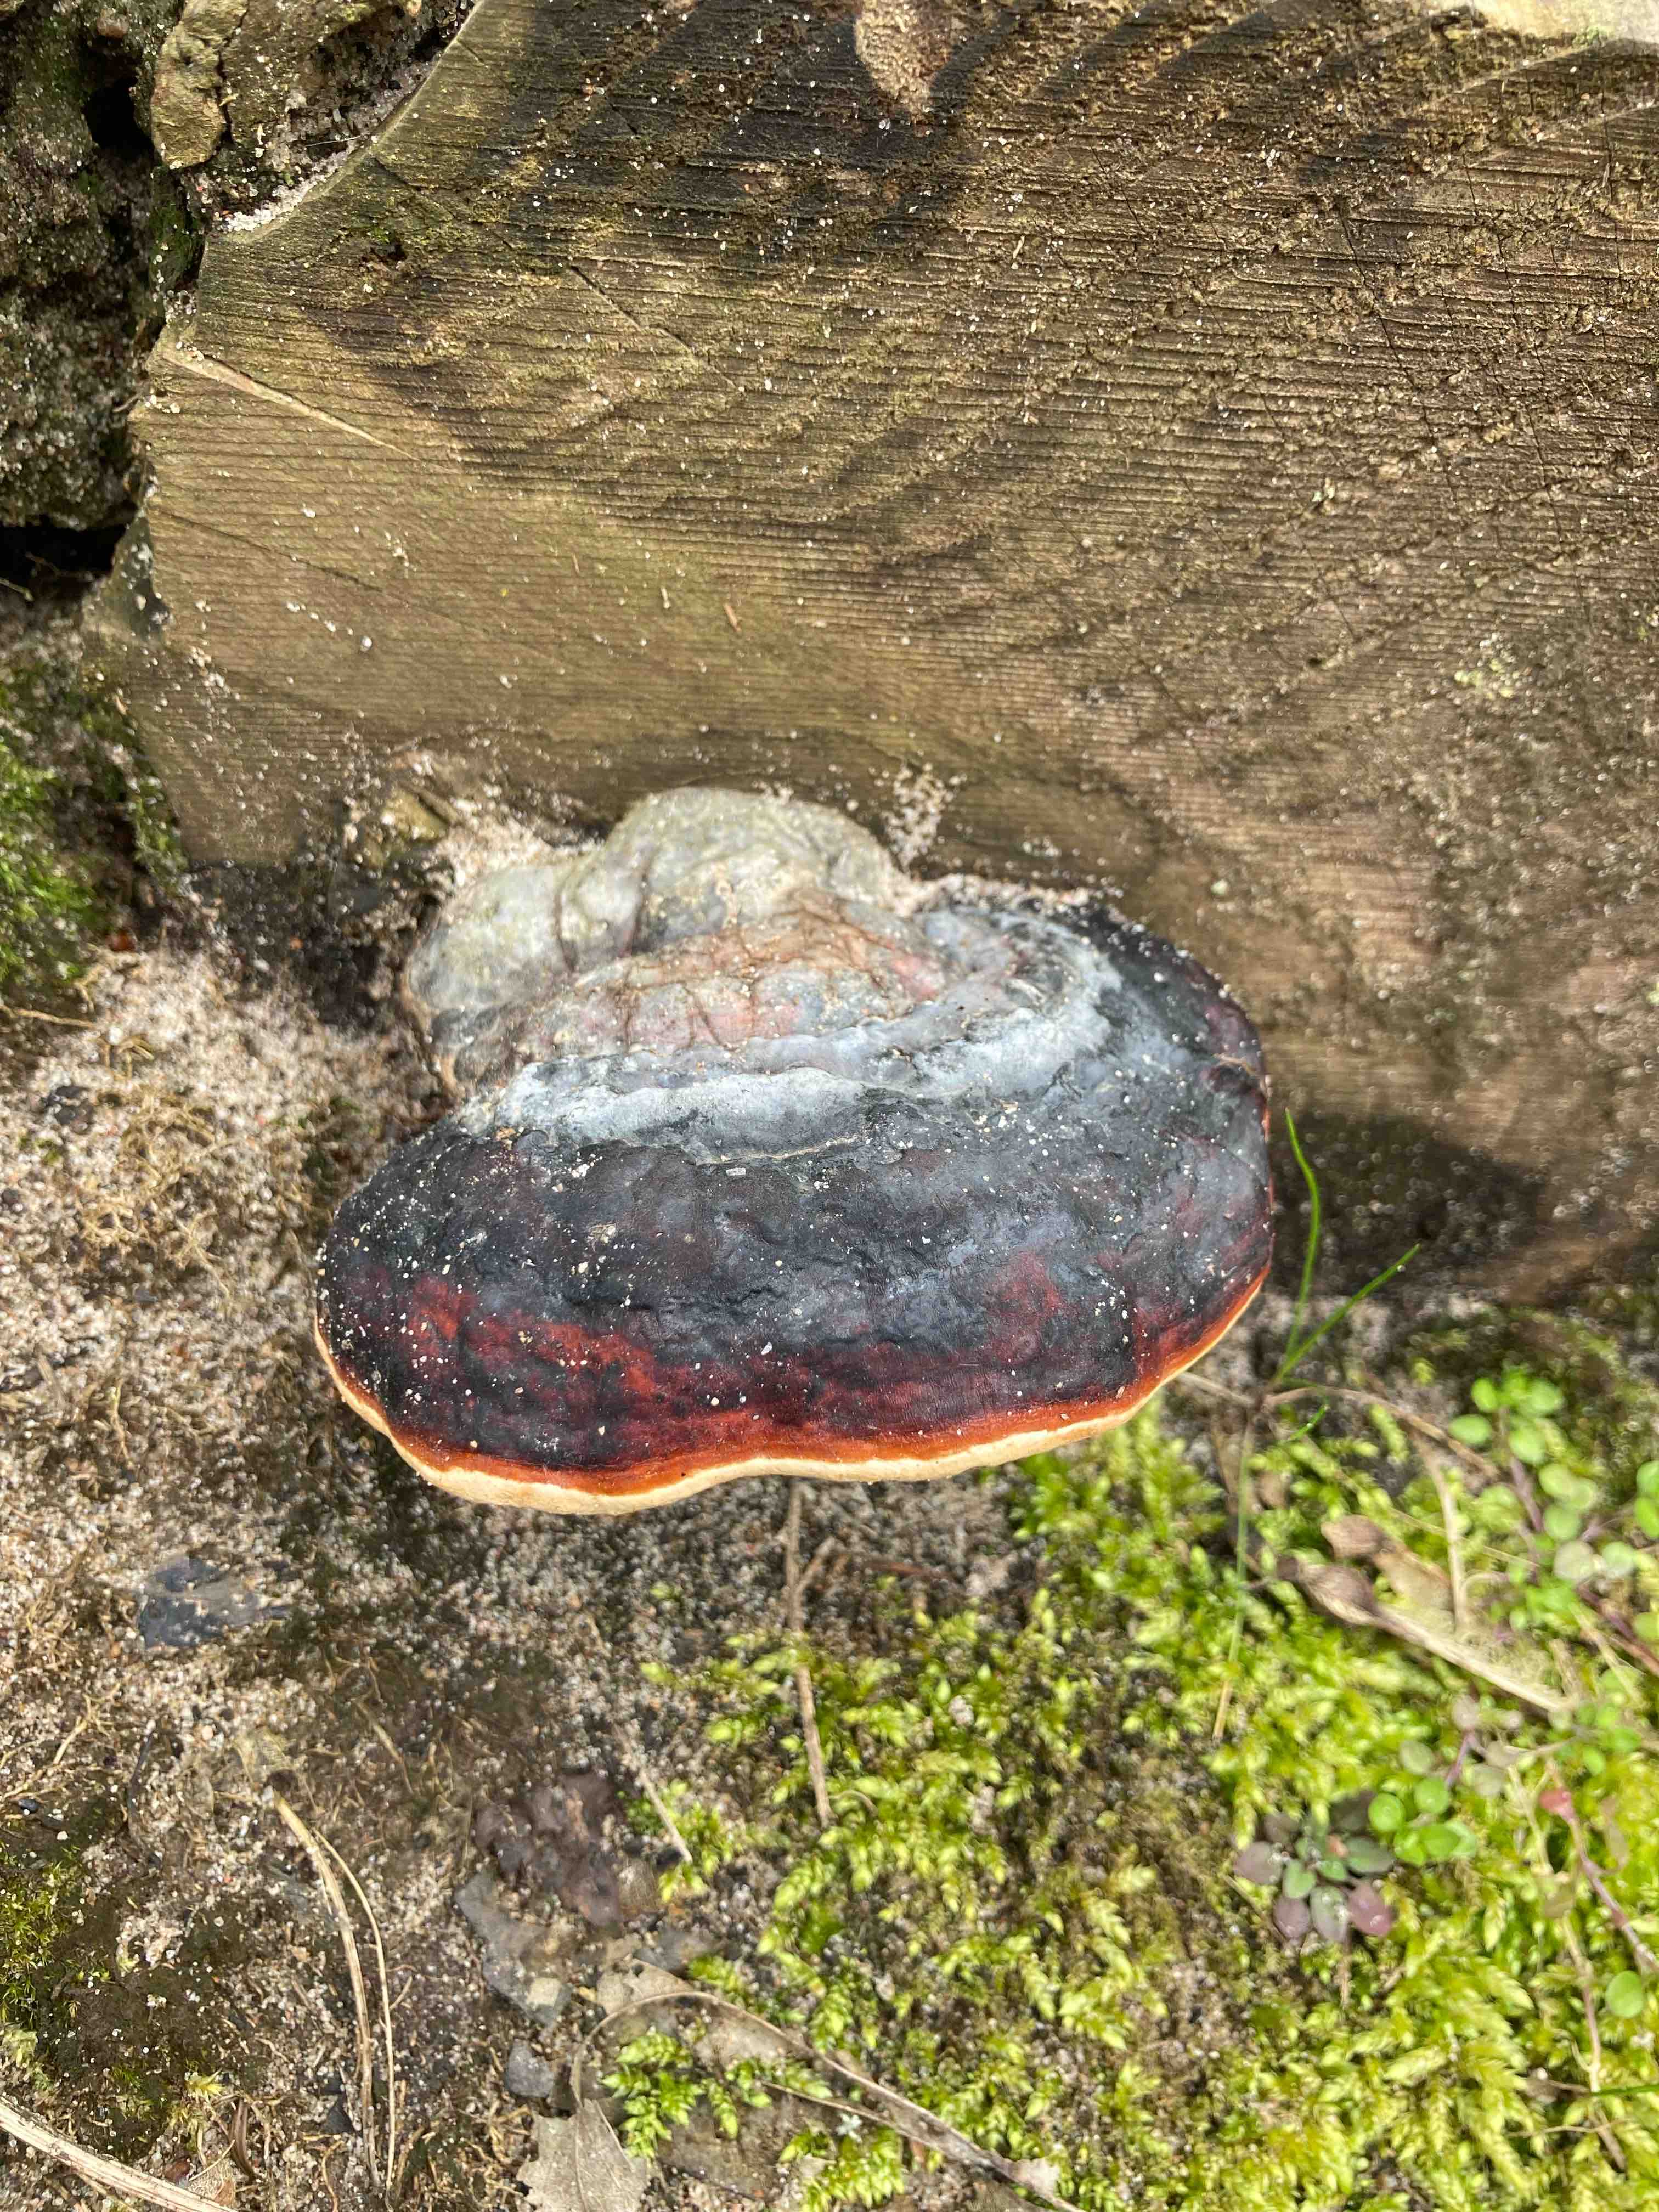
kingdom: Fungi
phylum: Basidiomycota
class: Agaricomycetes
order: Polyporales
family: Fomitopsidaceae
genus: Fomitopsis
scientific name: Fomitopsis pinicola
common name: randbæltet hovporesvamp
